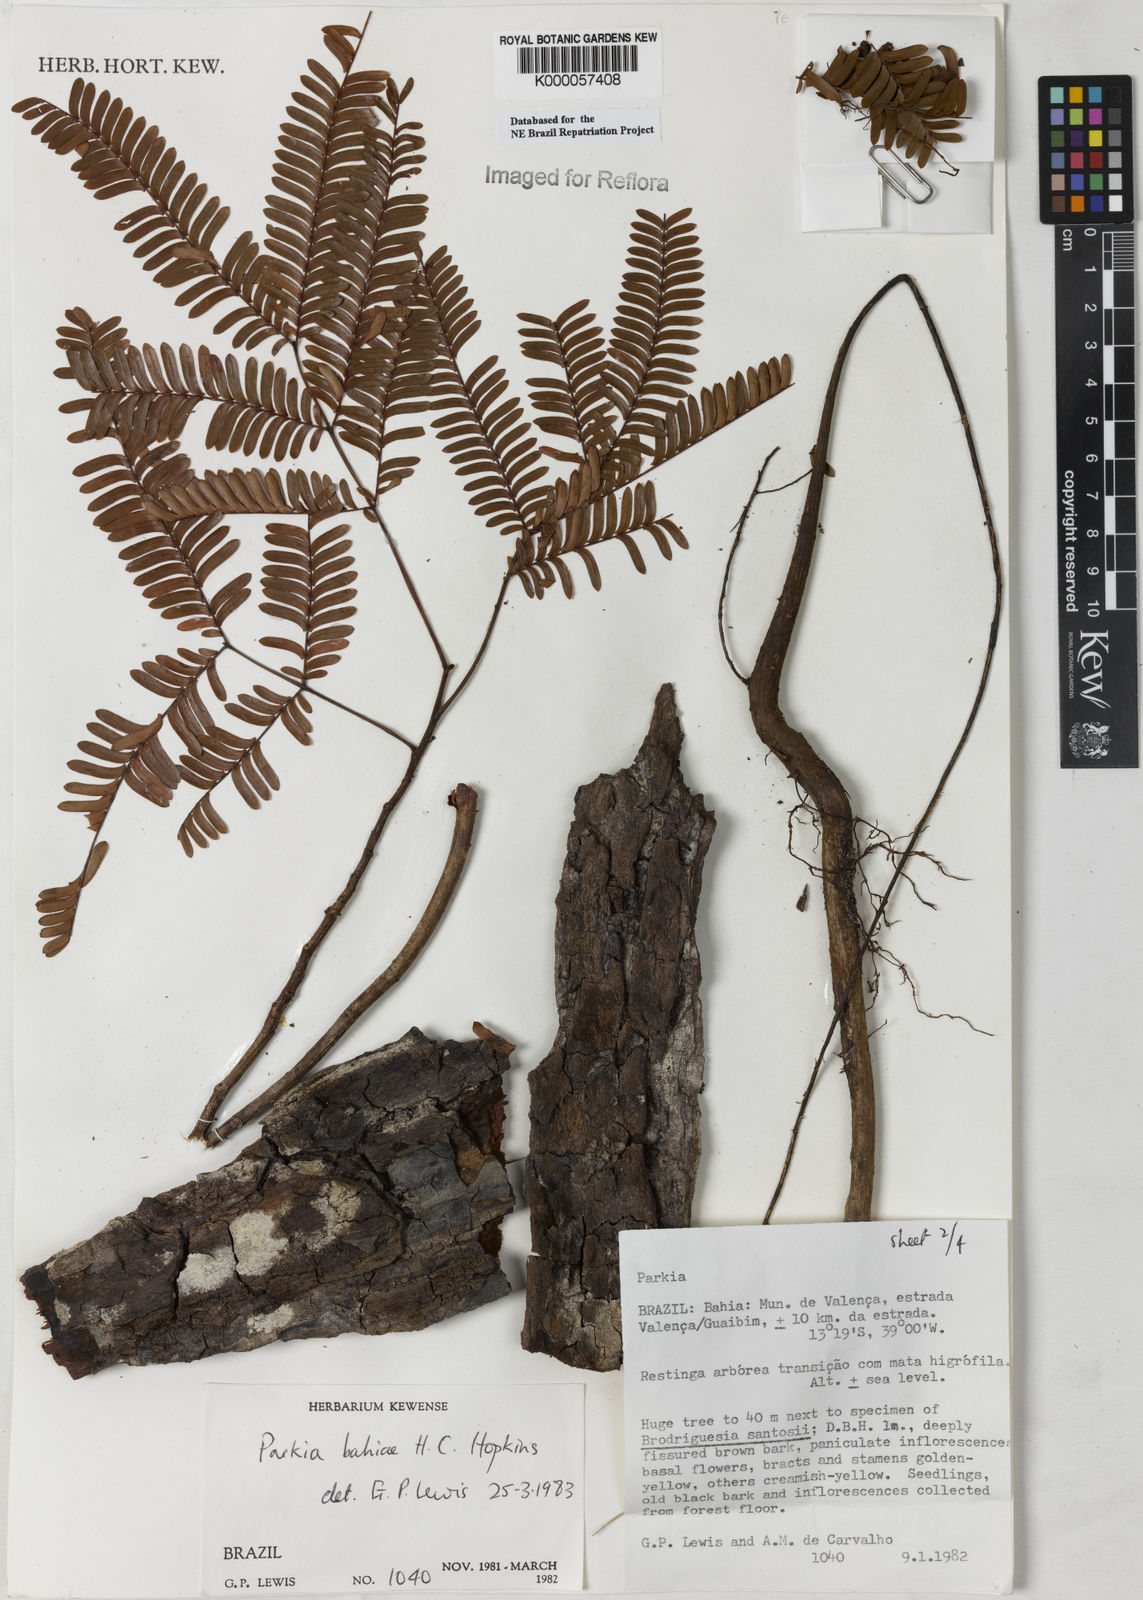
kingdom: Plantae
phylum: Tracheophyta
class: Magnoliopsida
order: Fabales
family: Fabaceae
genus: Parkia
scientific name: Parkia bahiae
